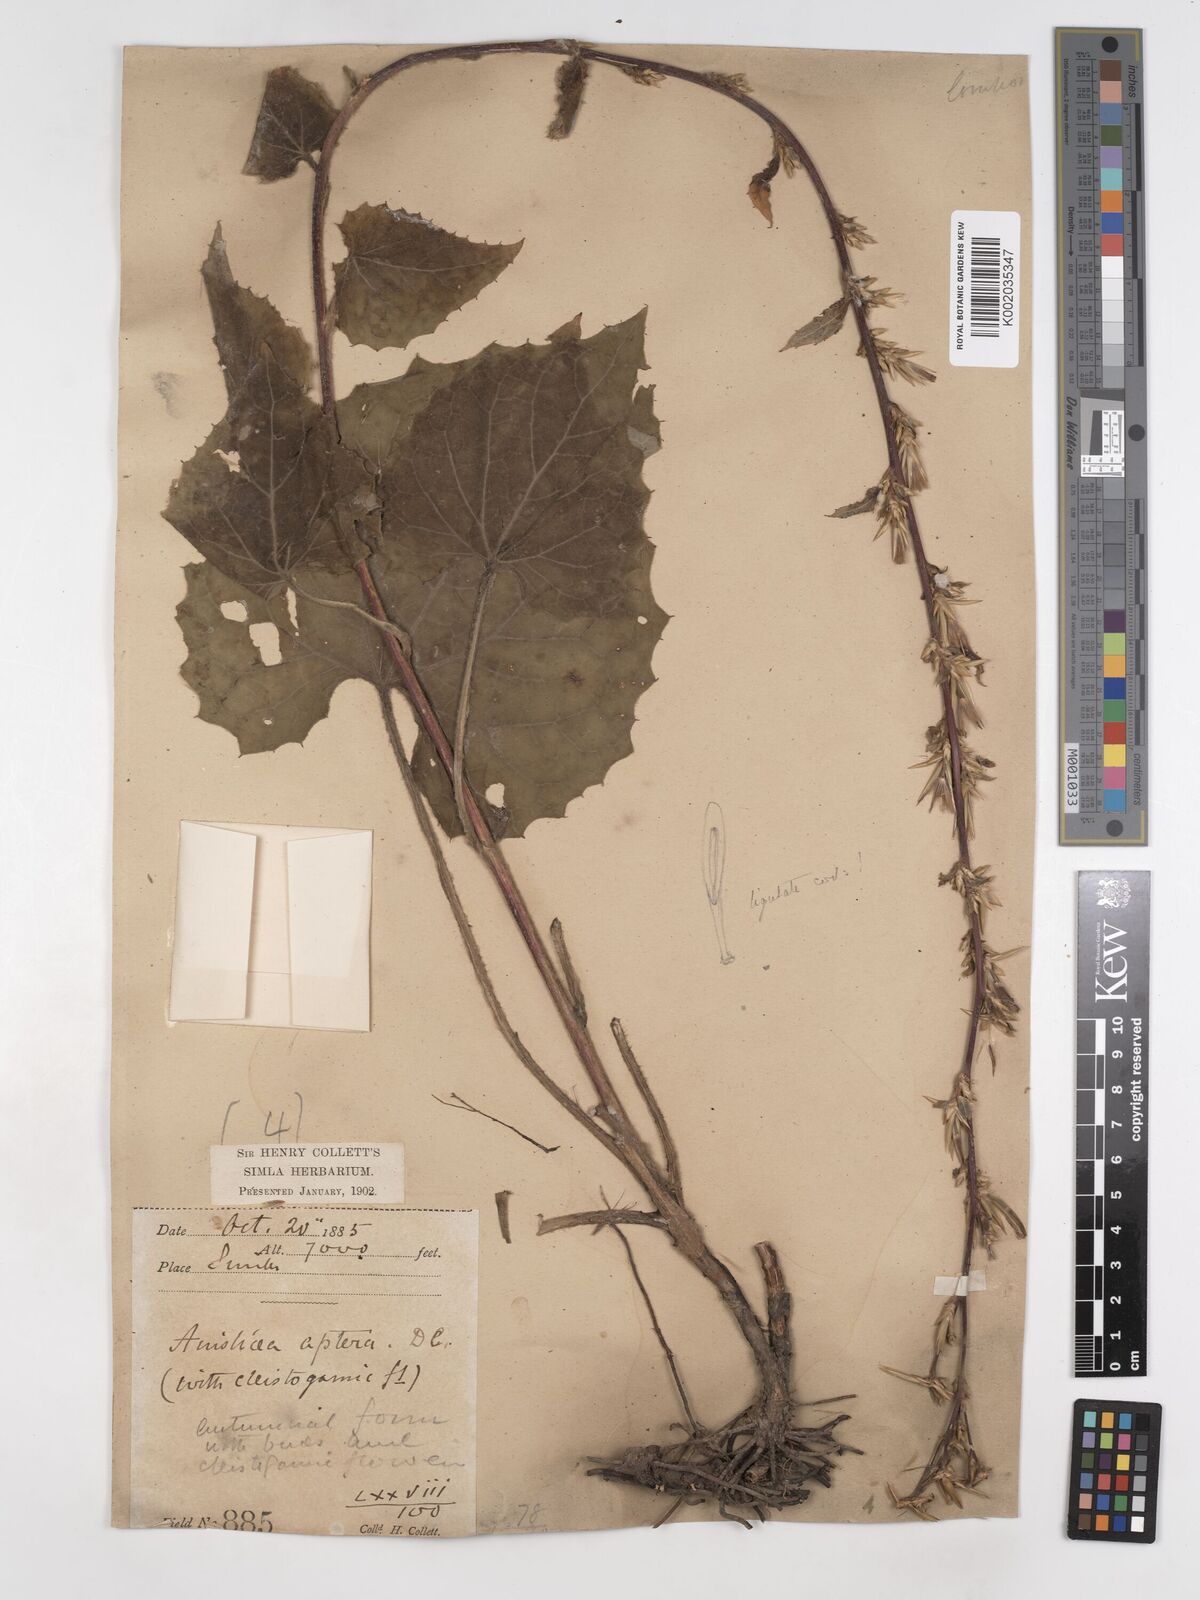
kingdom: Plantae
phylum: Tracheophyta
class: Magnoliopsida
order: Asterales
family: Asteraceae
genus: Ainsliaea
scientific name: Ainsliaea aptera
